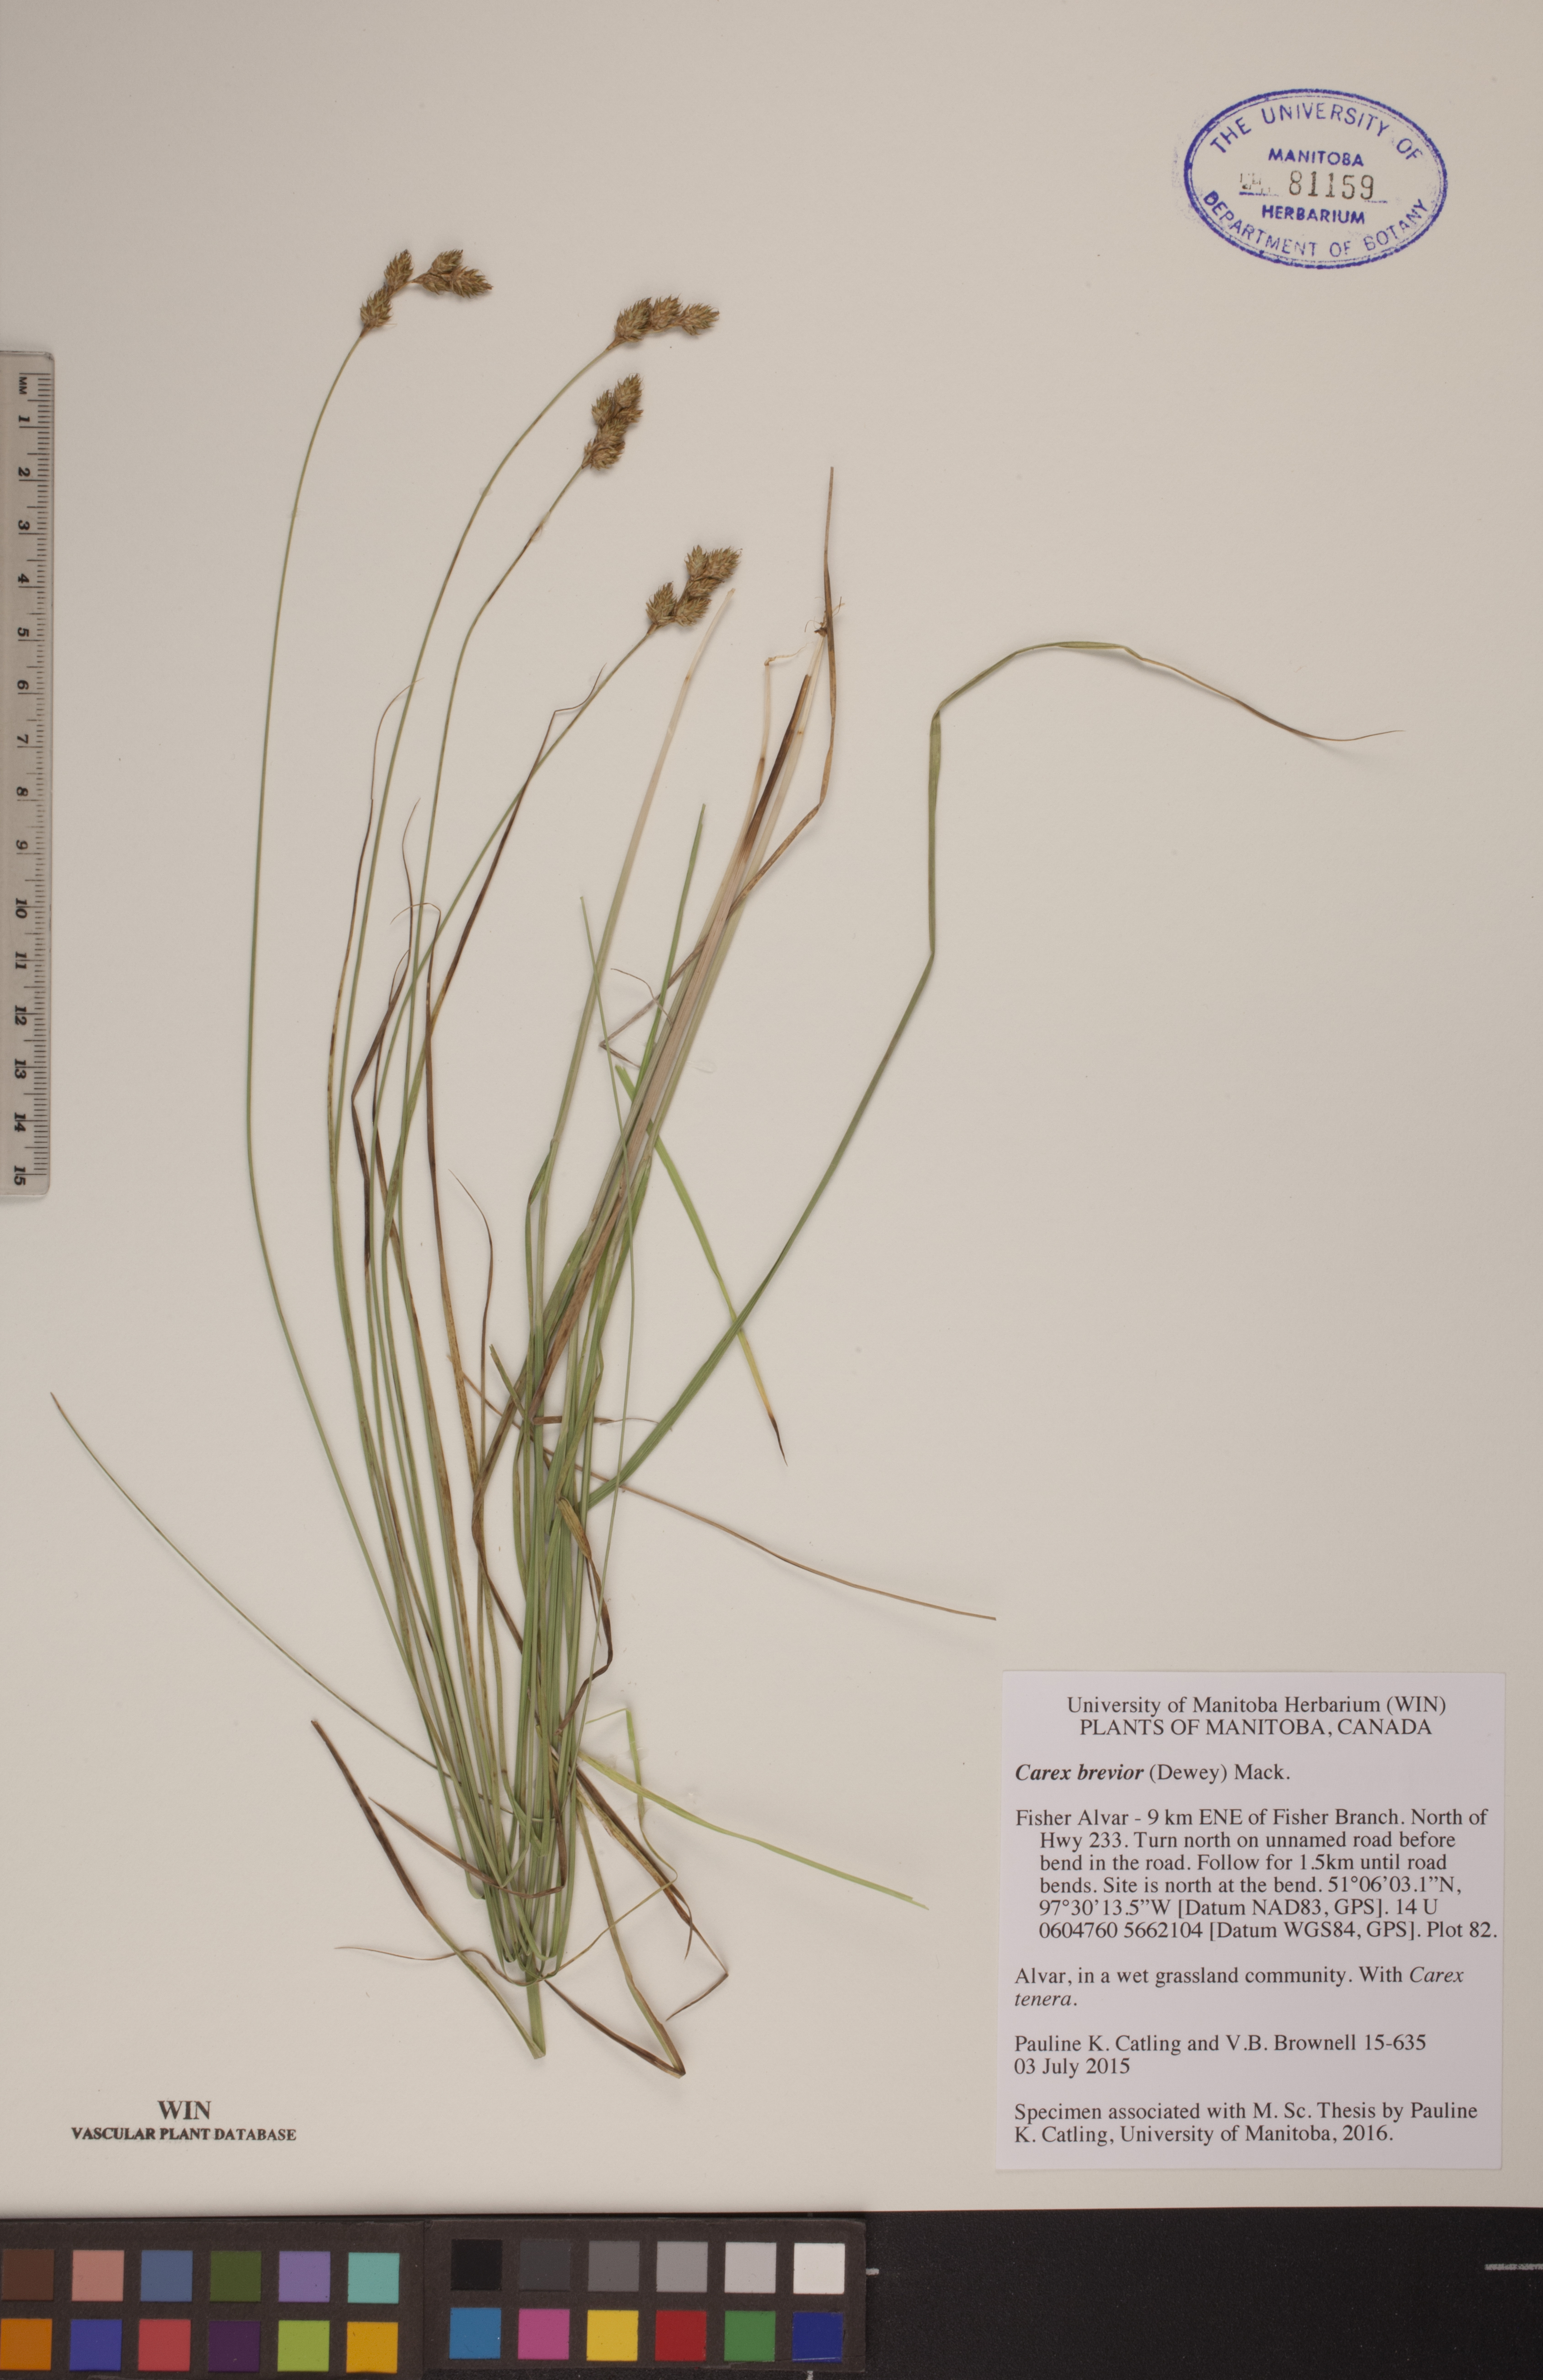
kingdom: Plantae
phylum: Tracheophyta
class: Liliopsida
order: Poales
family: Cyperaceae
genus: Carex
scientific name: Carex brevior
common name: Brevior sedge
